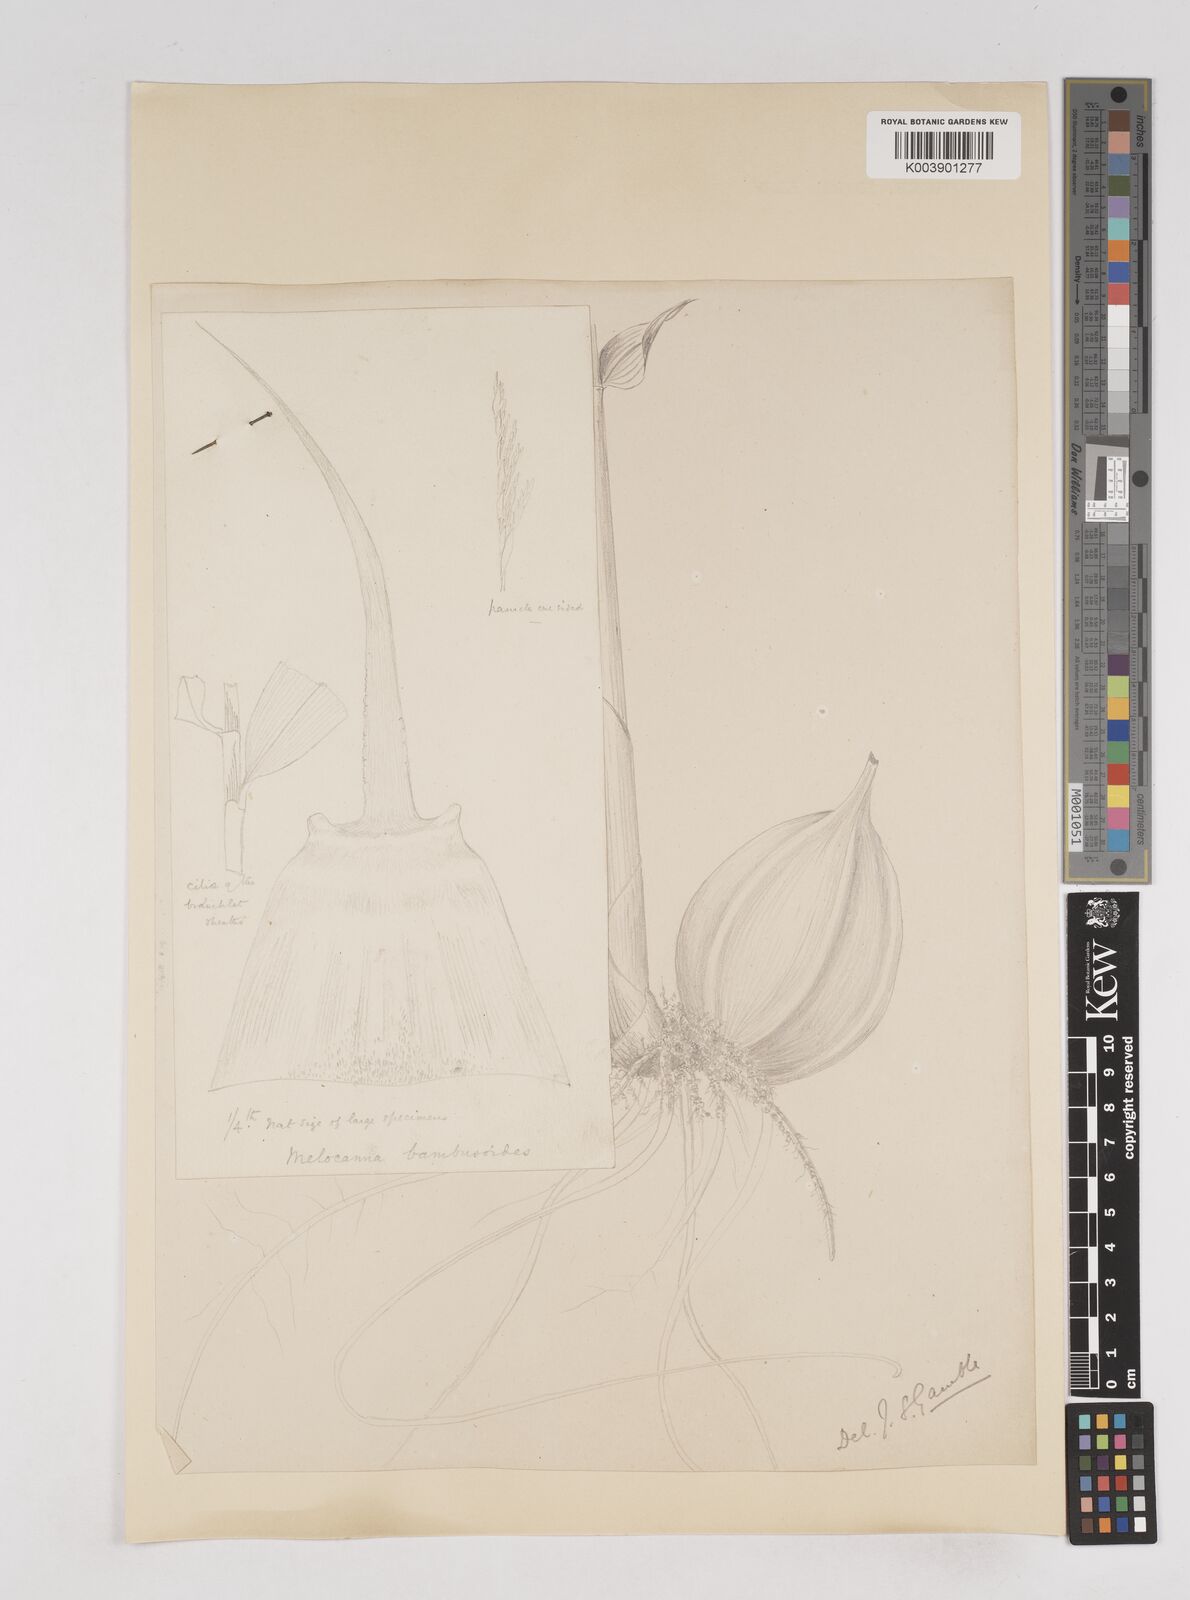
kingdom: Plantae
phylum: Tracheophyta
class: Liliopsida
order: Poales
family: Poaceae
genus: Melocanna
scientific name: Melocanna baccifera
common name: Berry bamboo
